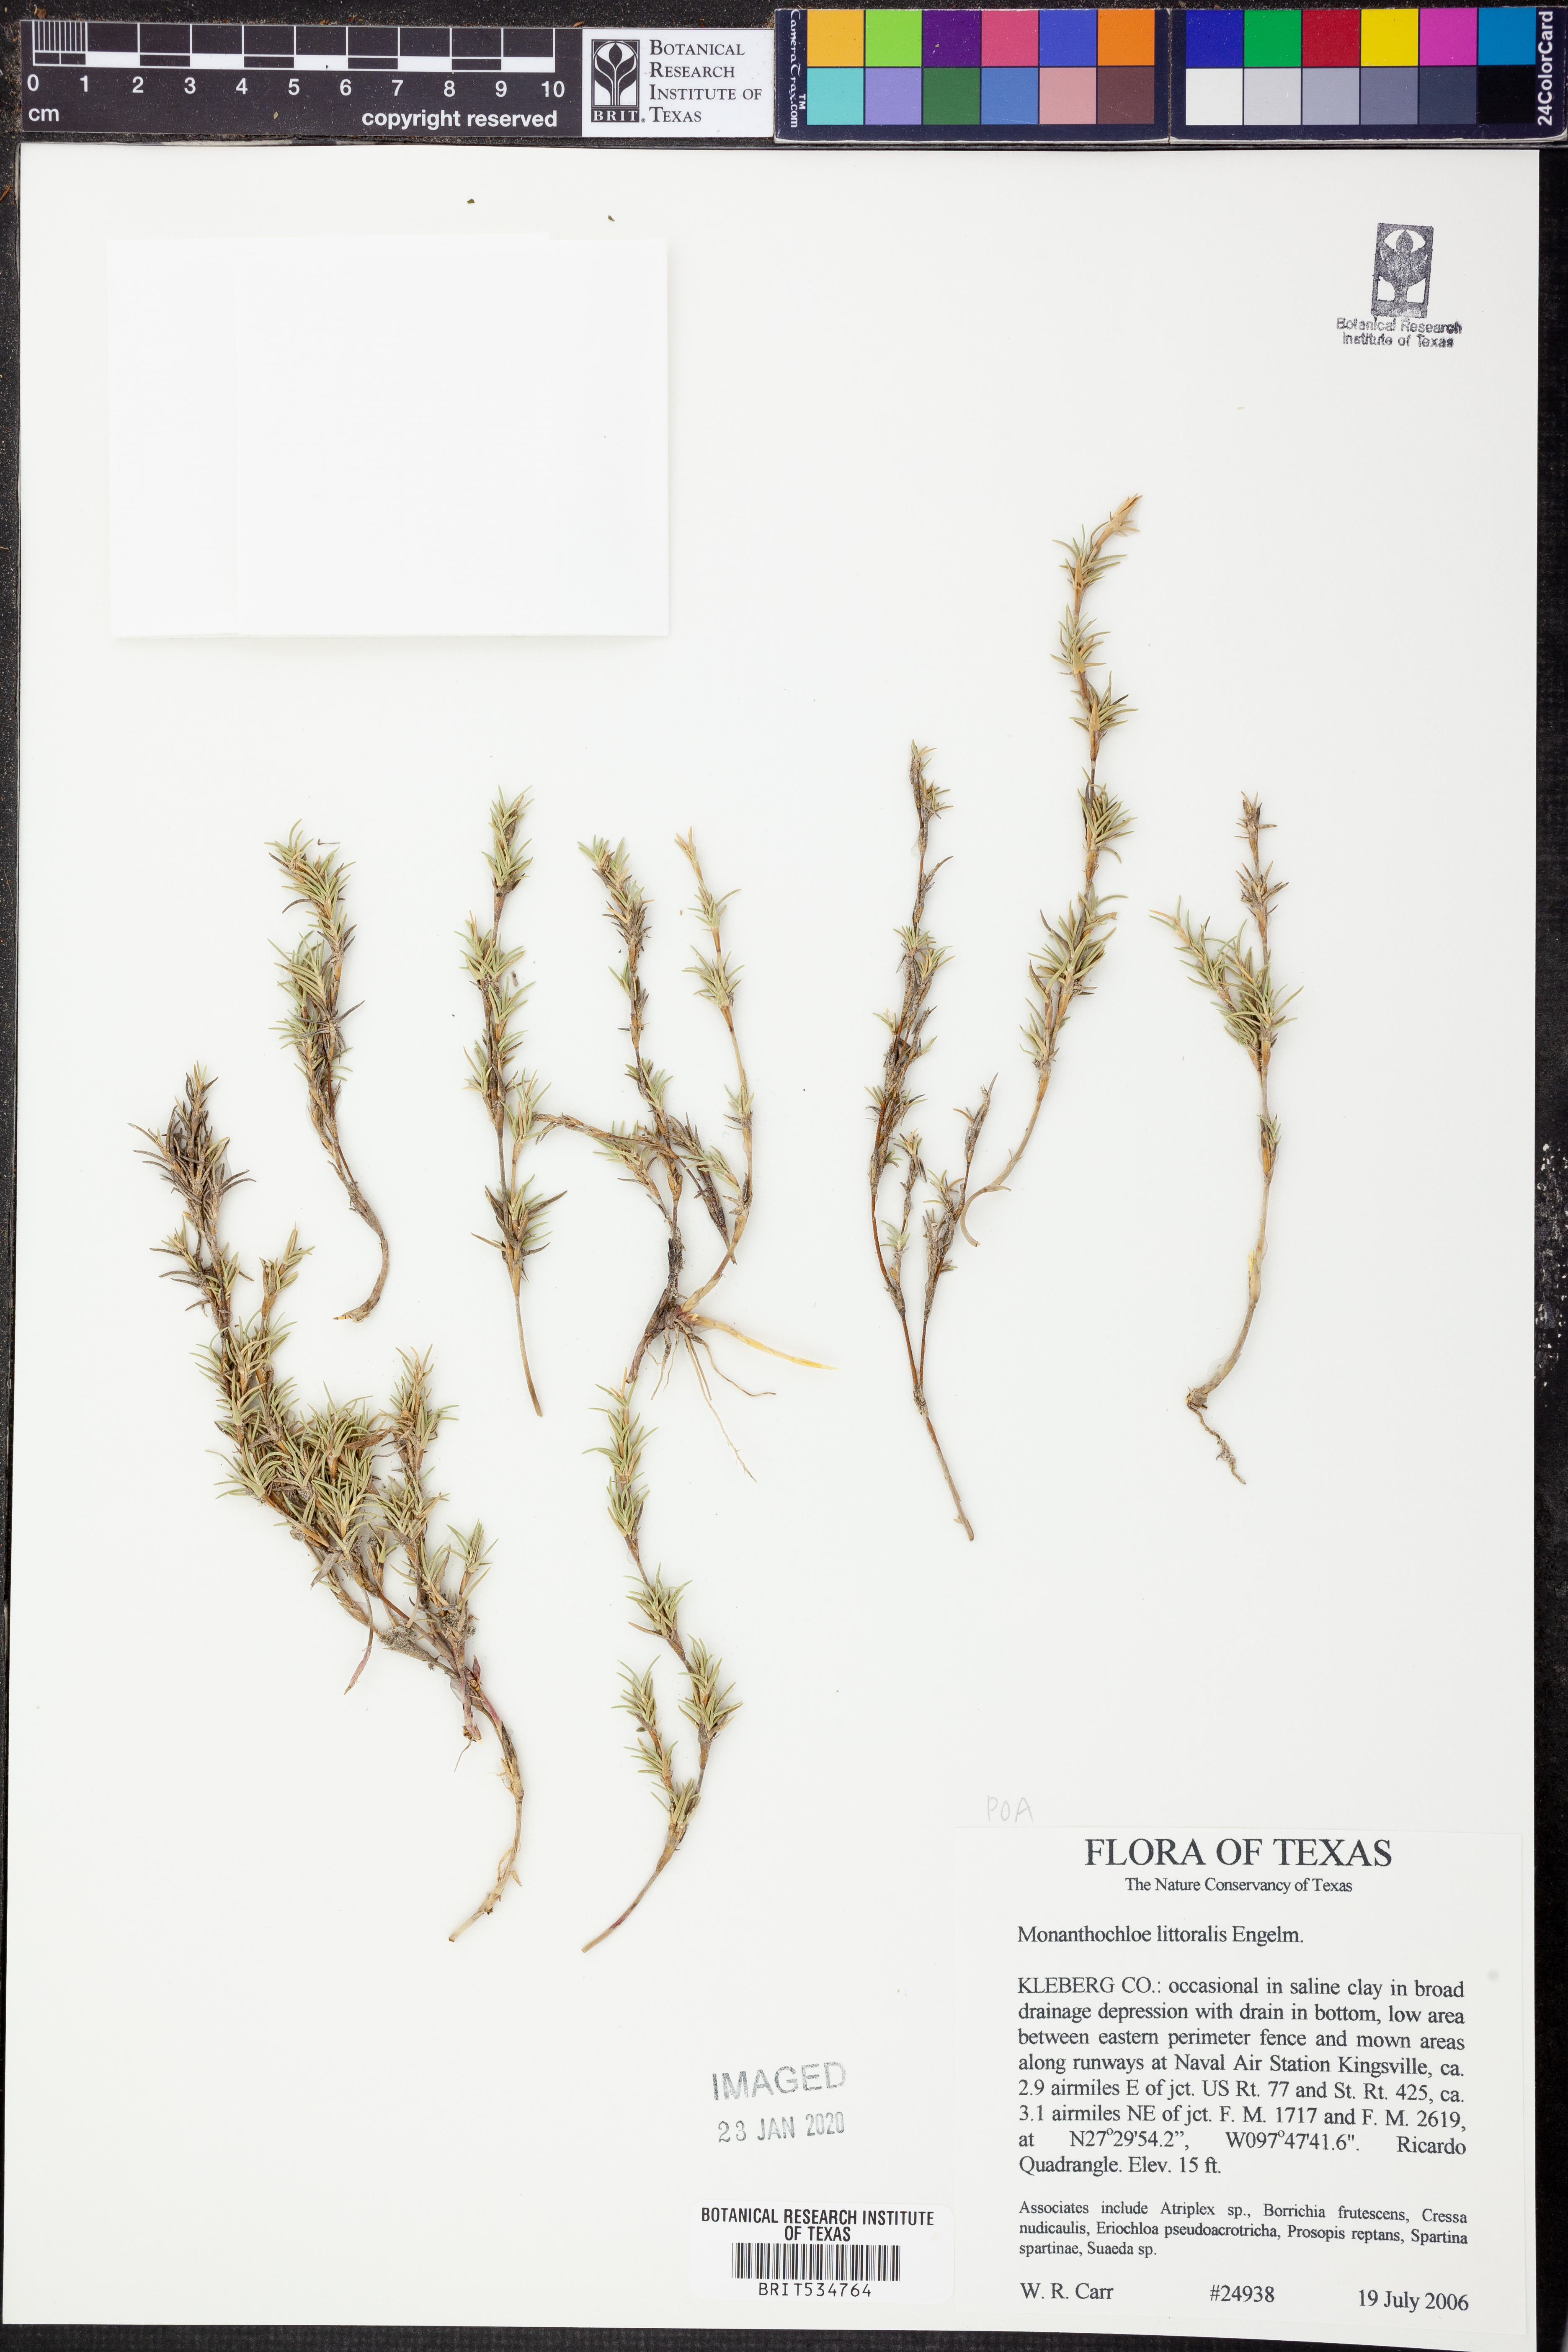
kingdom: Plantae
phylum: Tracheophyta
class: Liliopsida
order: Poales
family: Poaceae
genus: Distichlis
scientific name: Distichlis littoralis
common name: Shore grass
